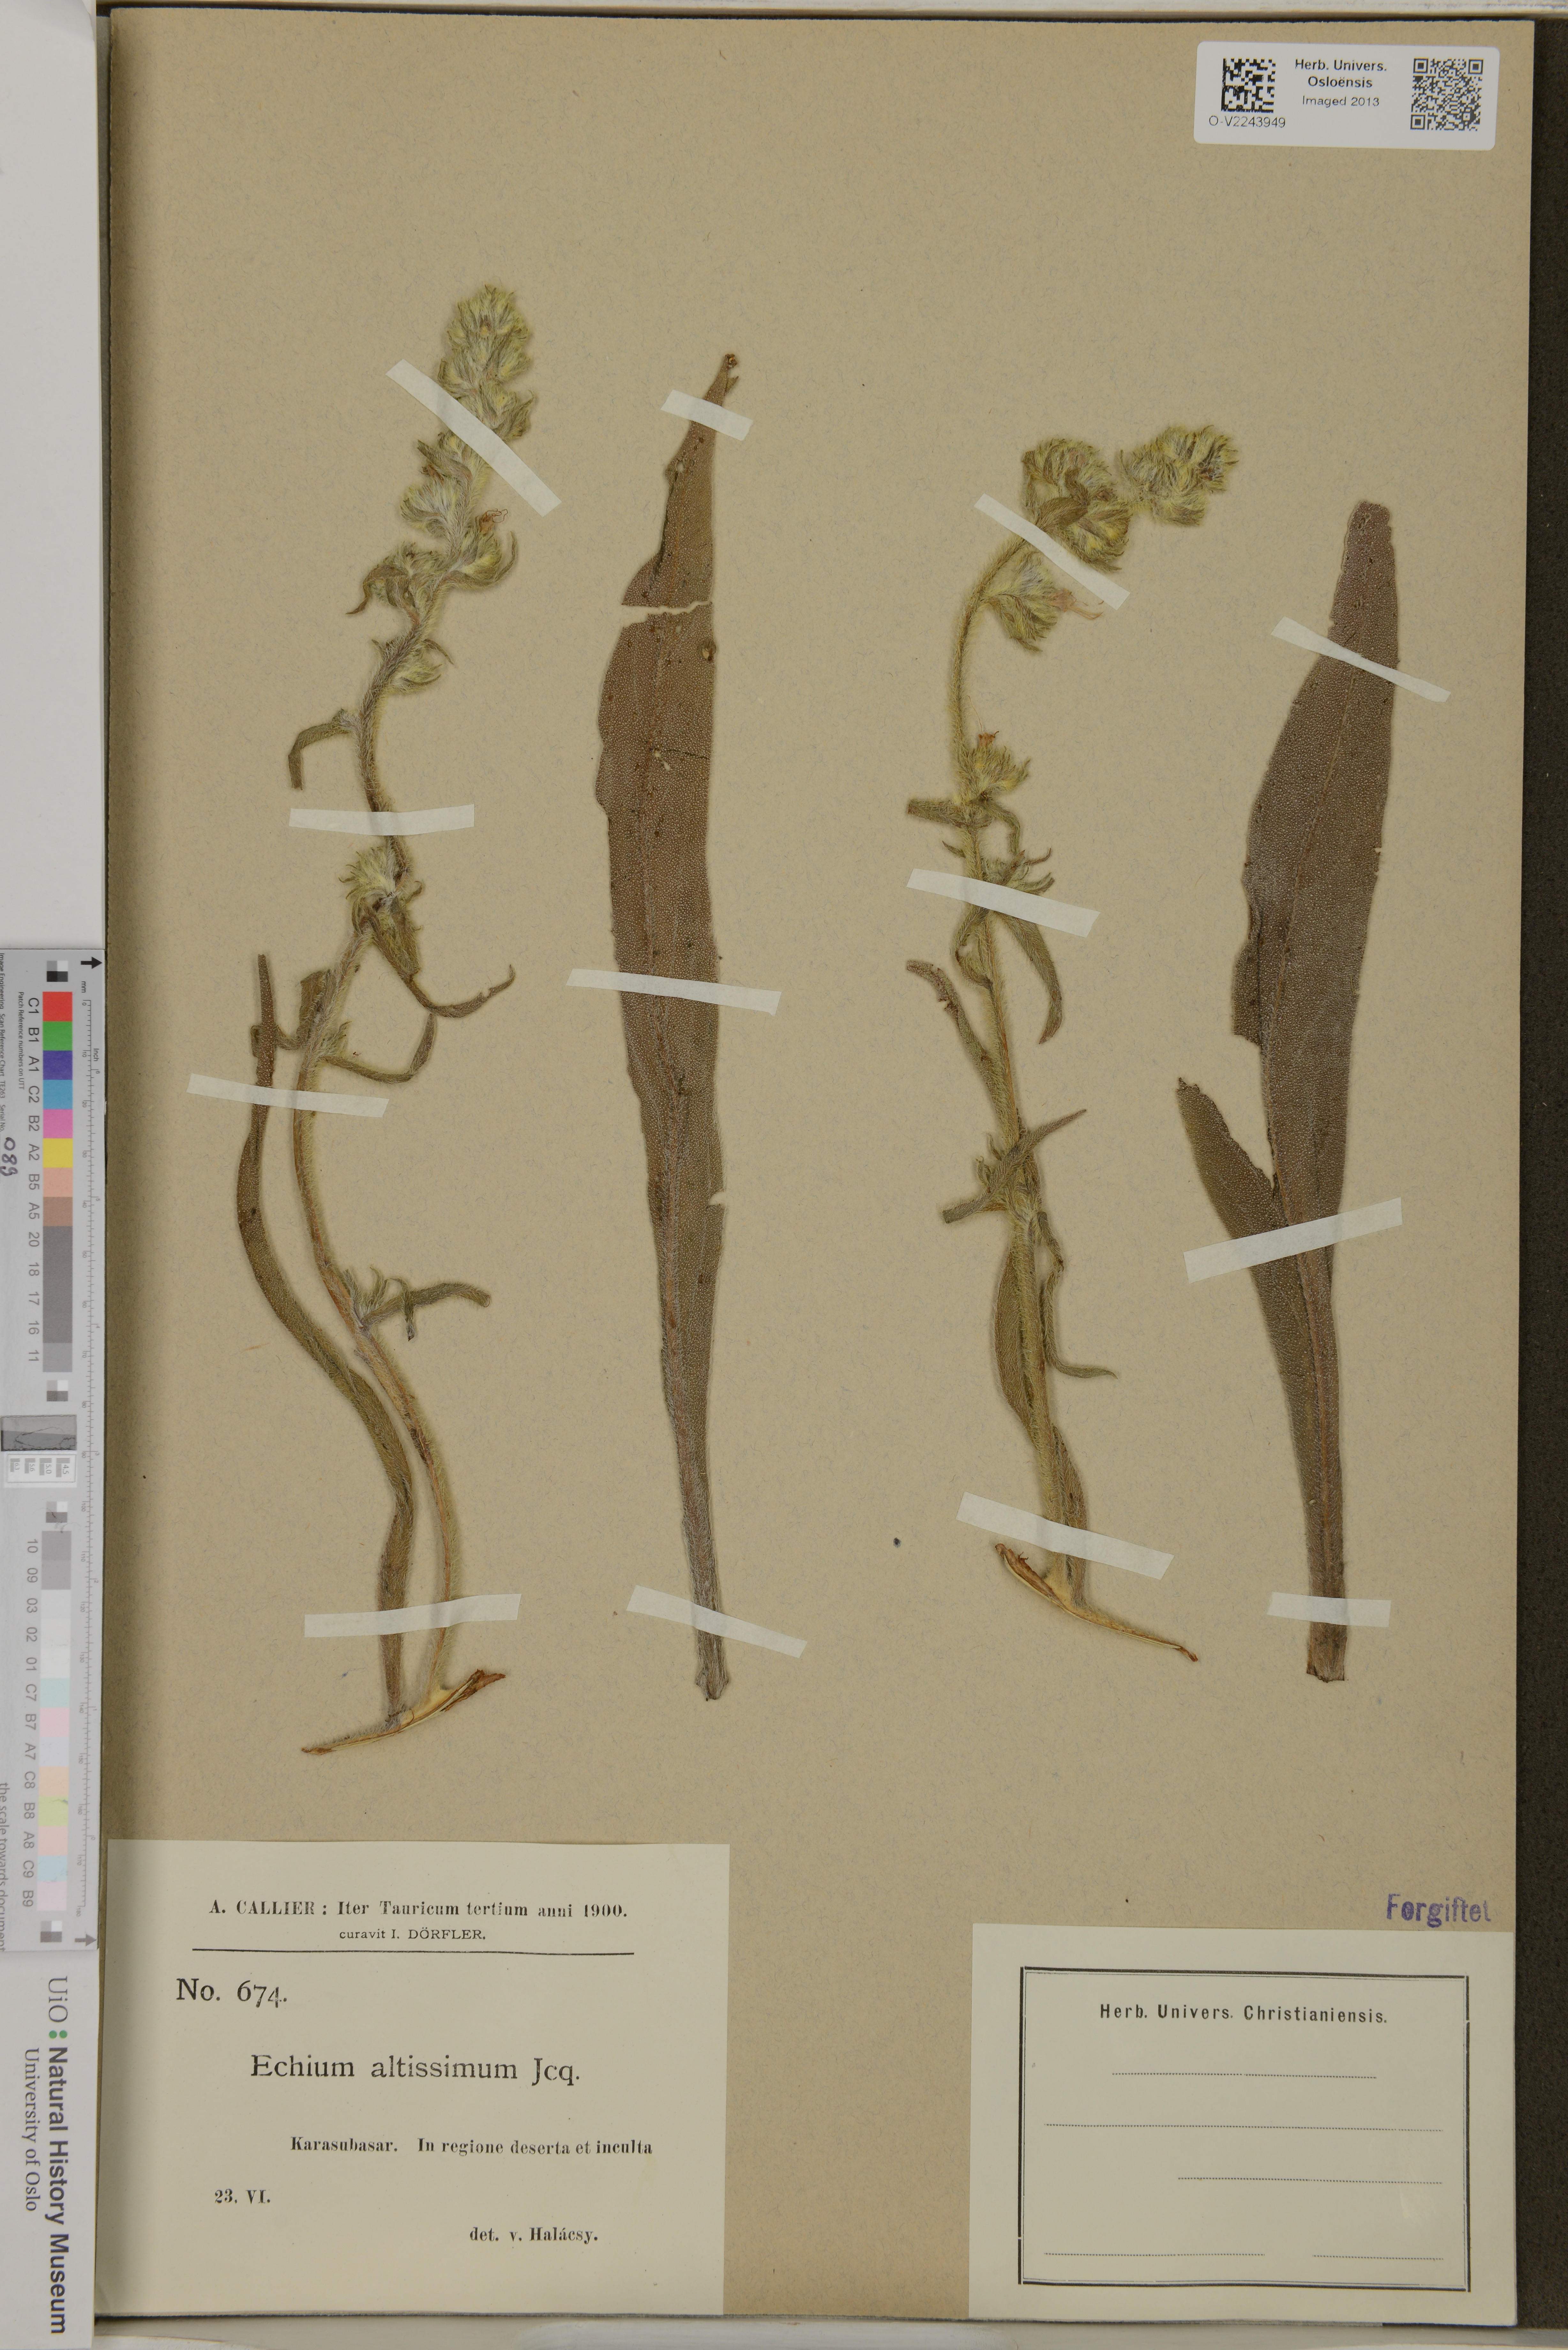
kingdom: Plantae
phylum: Tracheophyta
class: Magnoliopsida
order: Boraginales
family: Boraginaceae
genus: Echium
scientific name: Echium italicum
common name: Italian viper's bugloss
